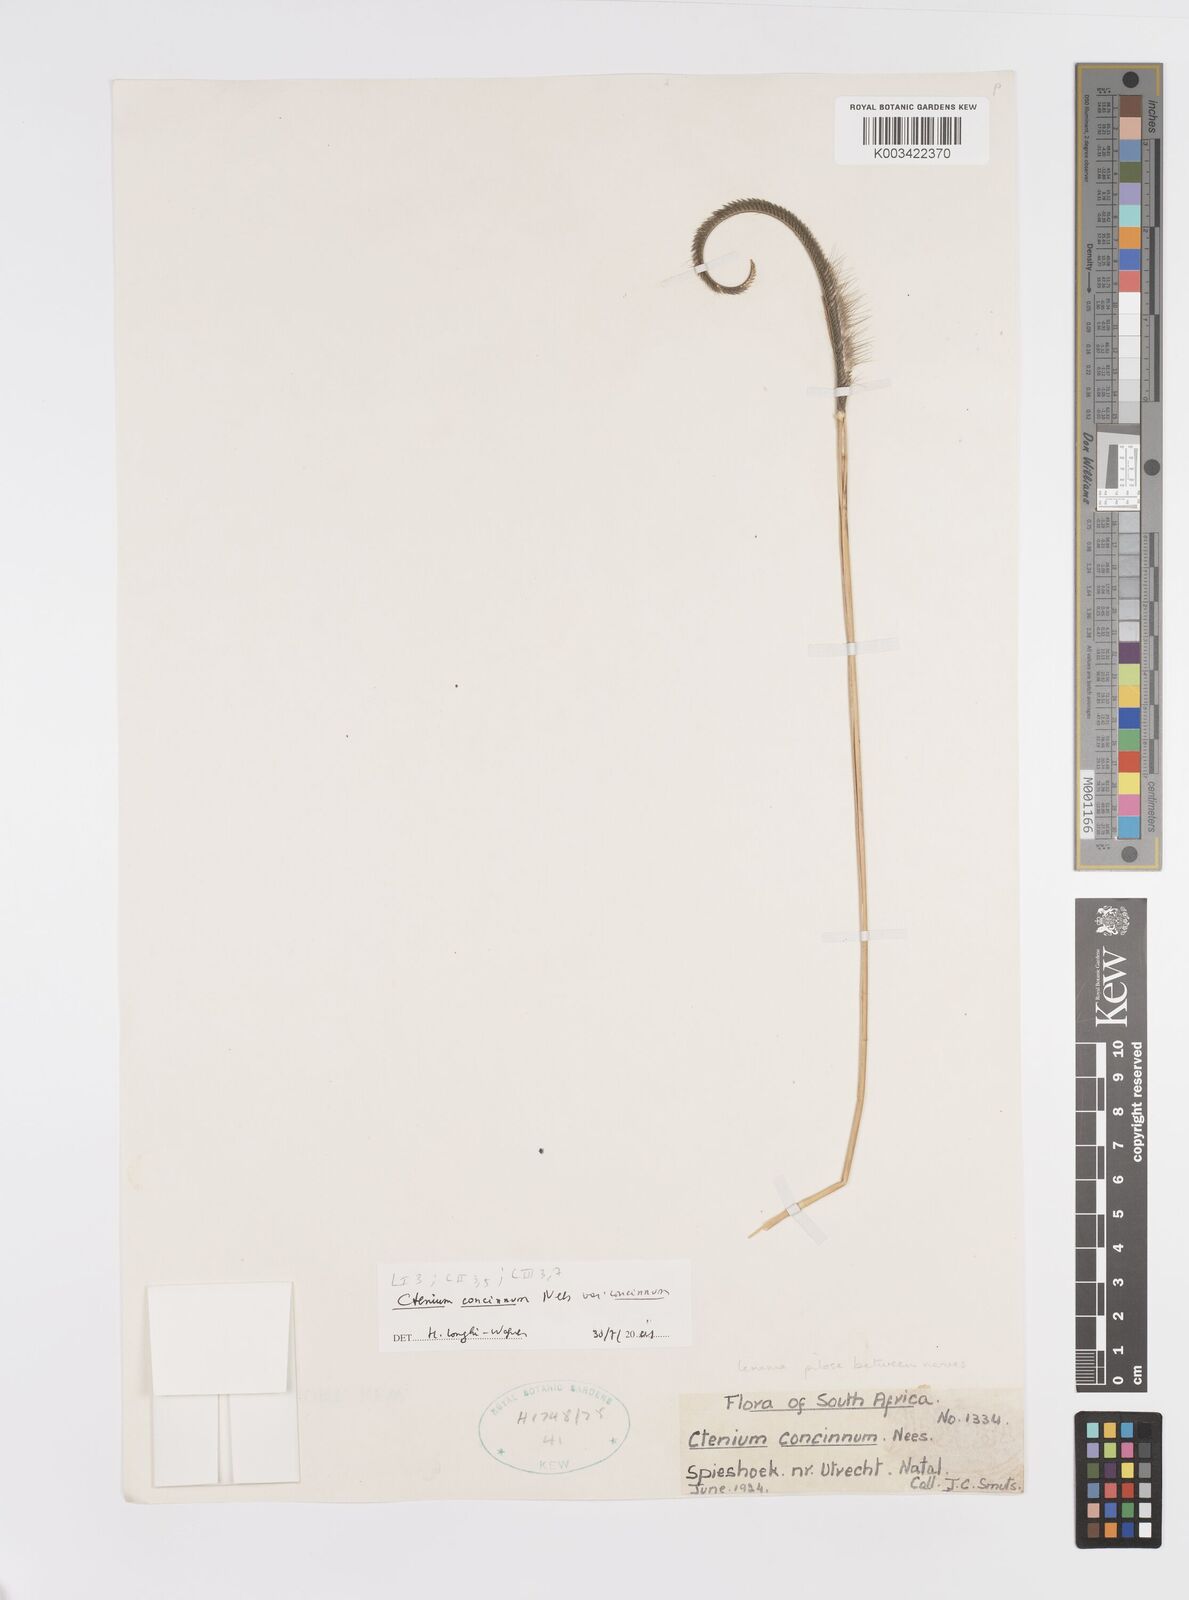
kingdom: Plantae
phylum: Tracheophyta
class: Liliopsida
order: Poales
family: Poaceae
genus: Ctenium
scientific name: Ctenium concinnum
